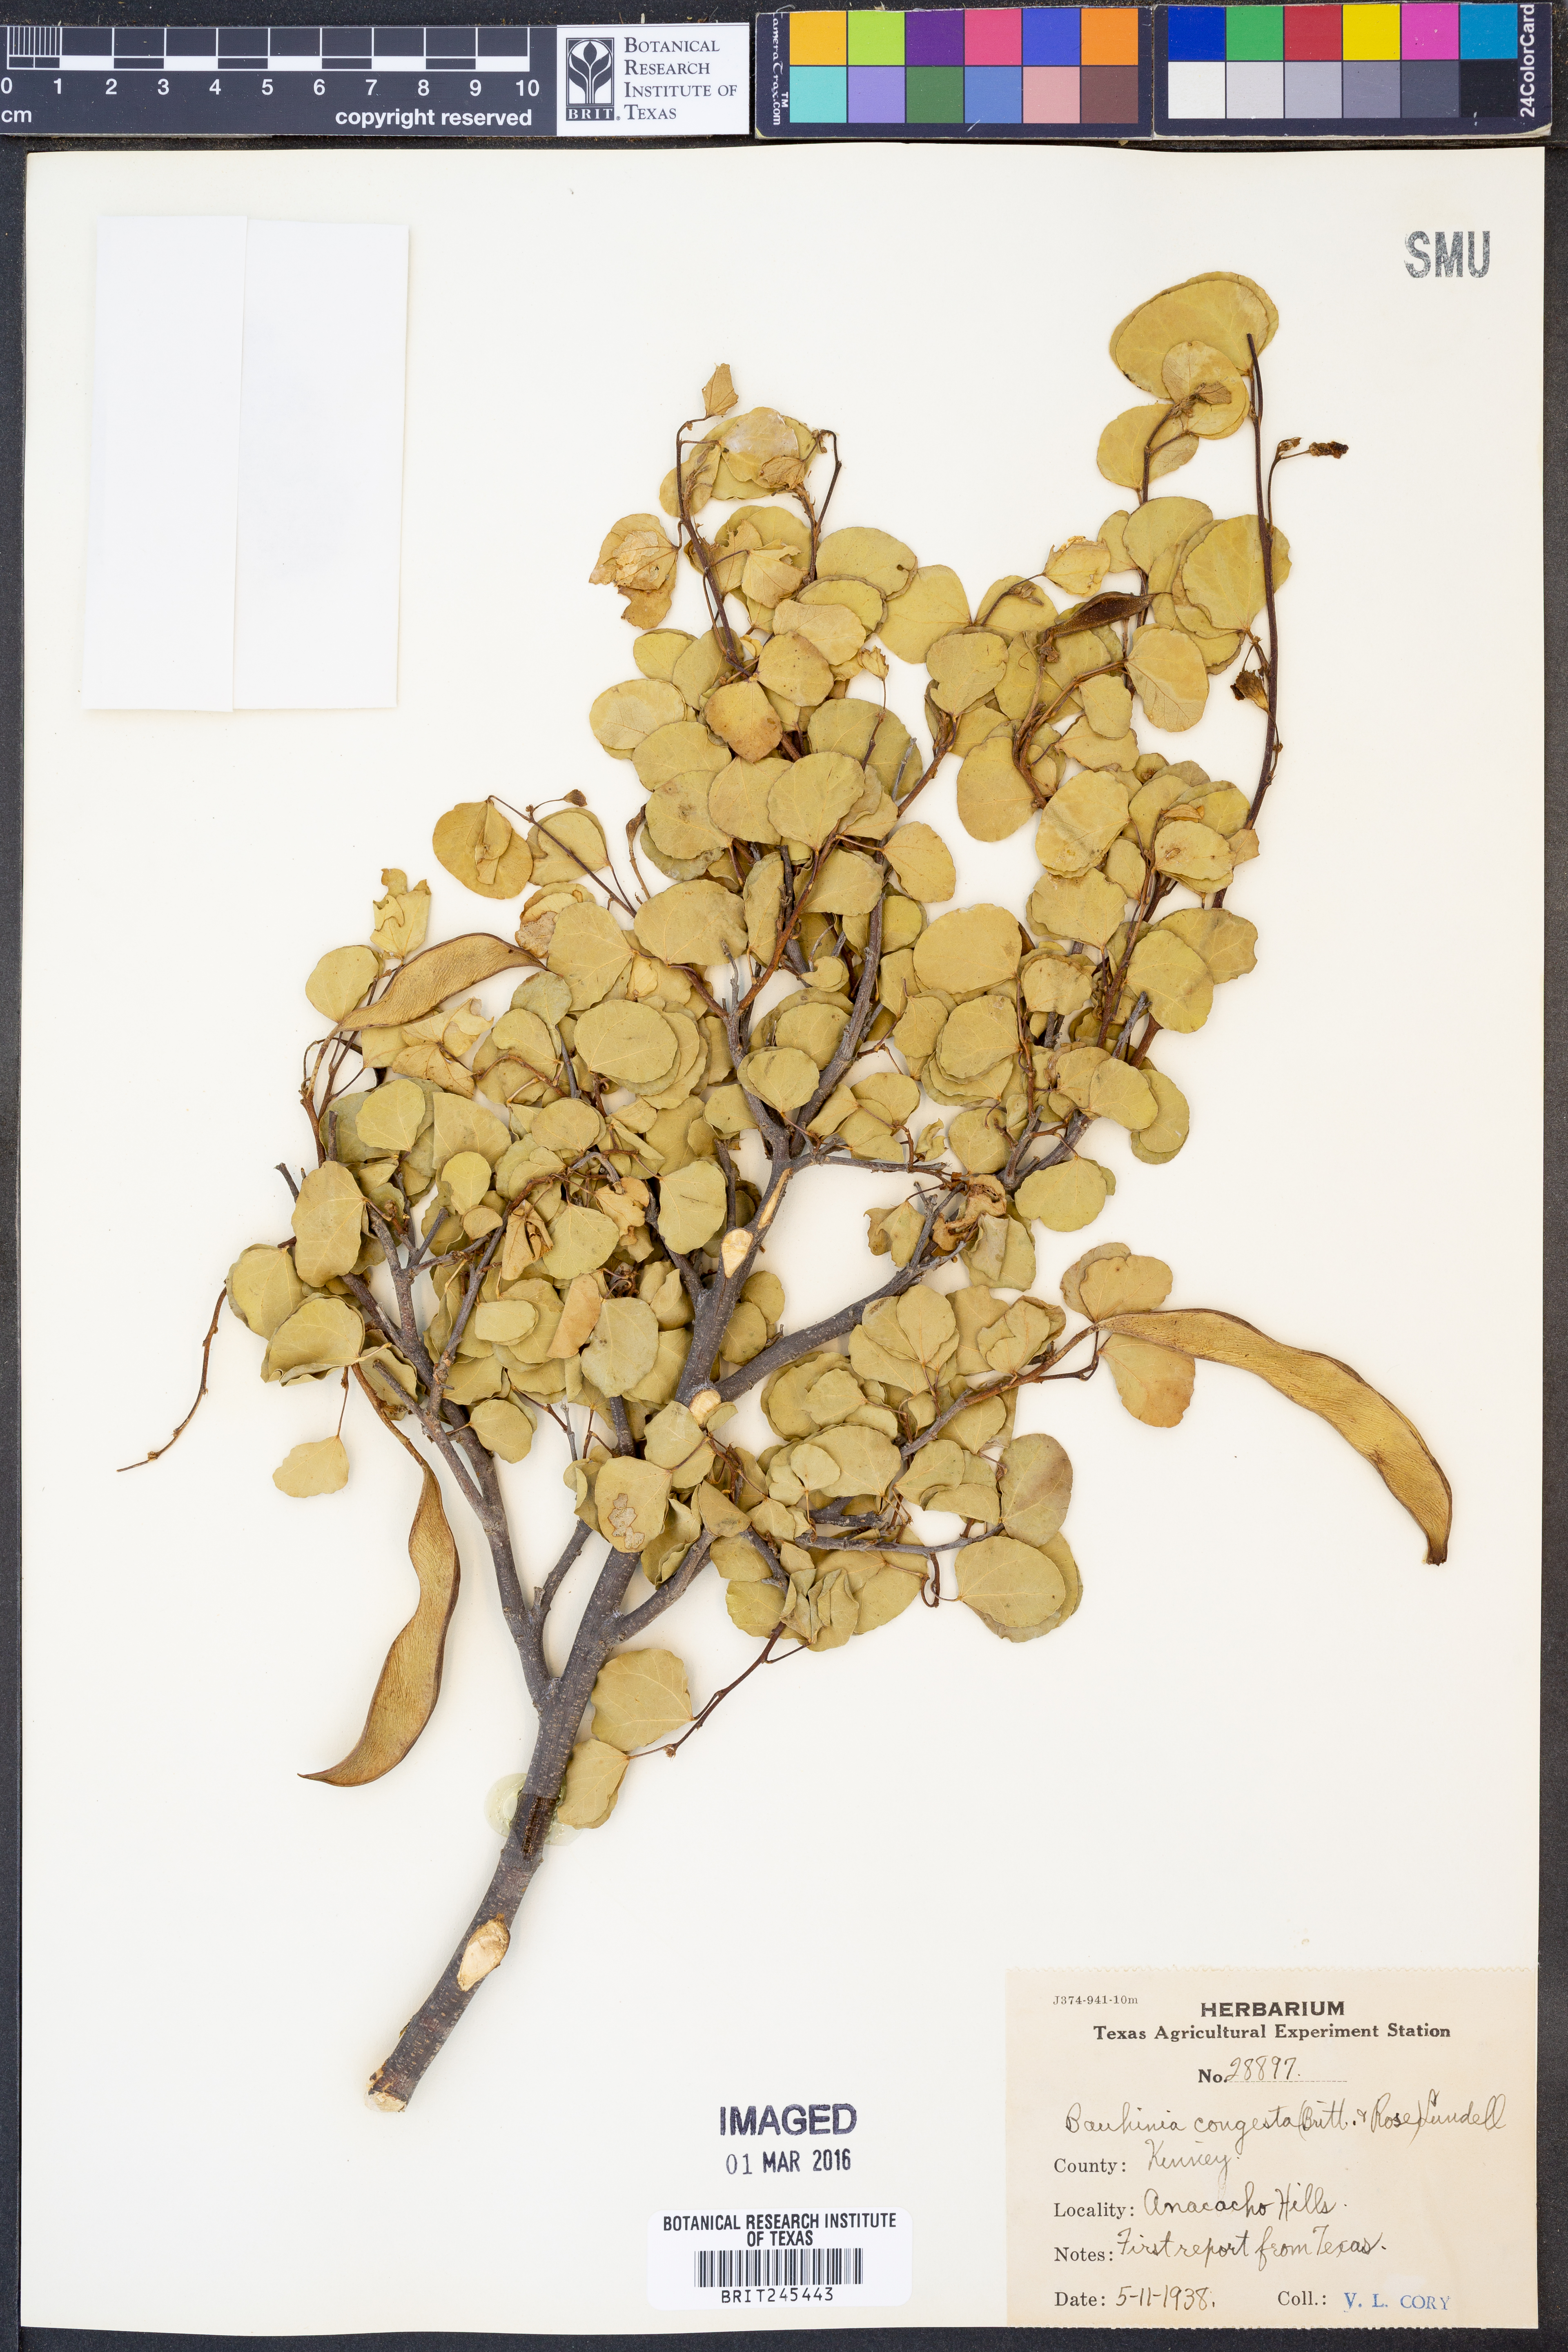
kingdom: Plantae
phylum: Tracheophyta
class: Magnoliopsida
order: Fabales
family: Fabaceae
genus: Bauhinia
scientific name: Bauhinia lunarioides
